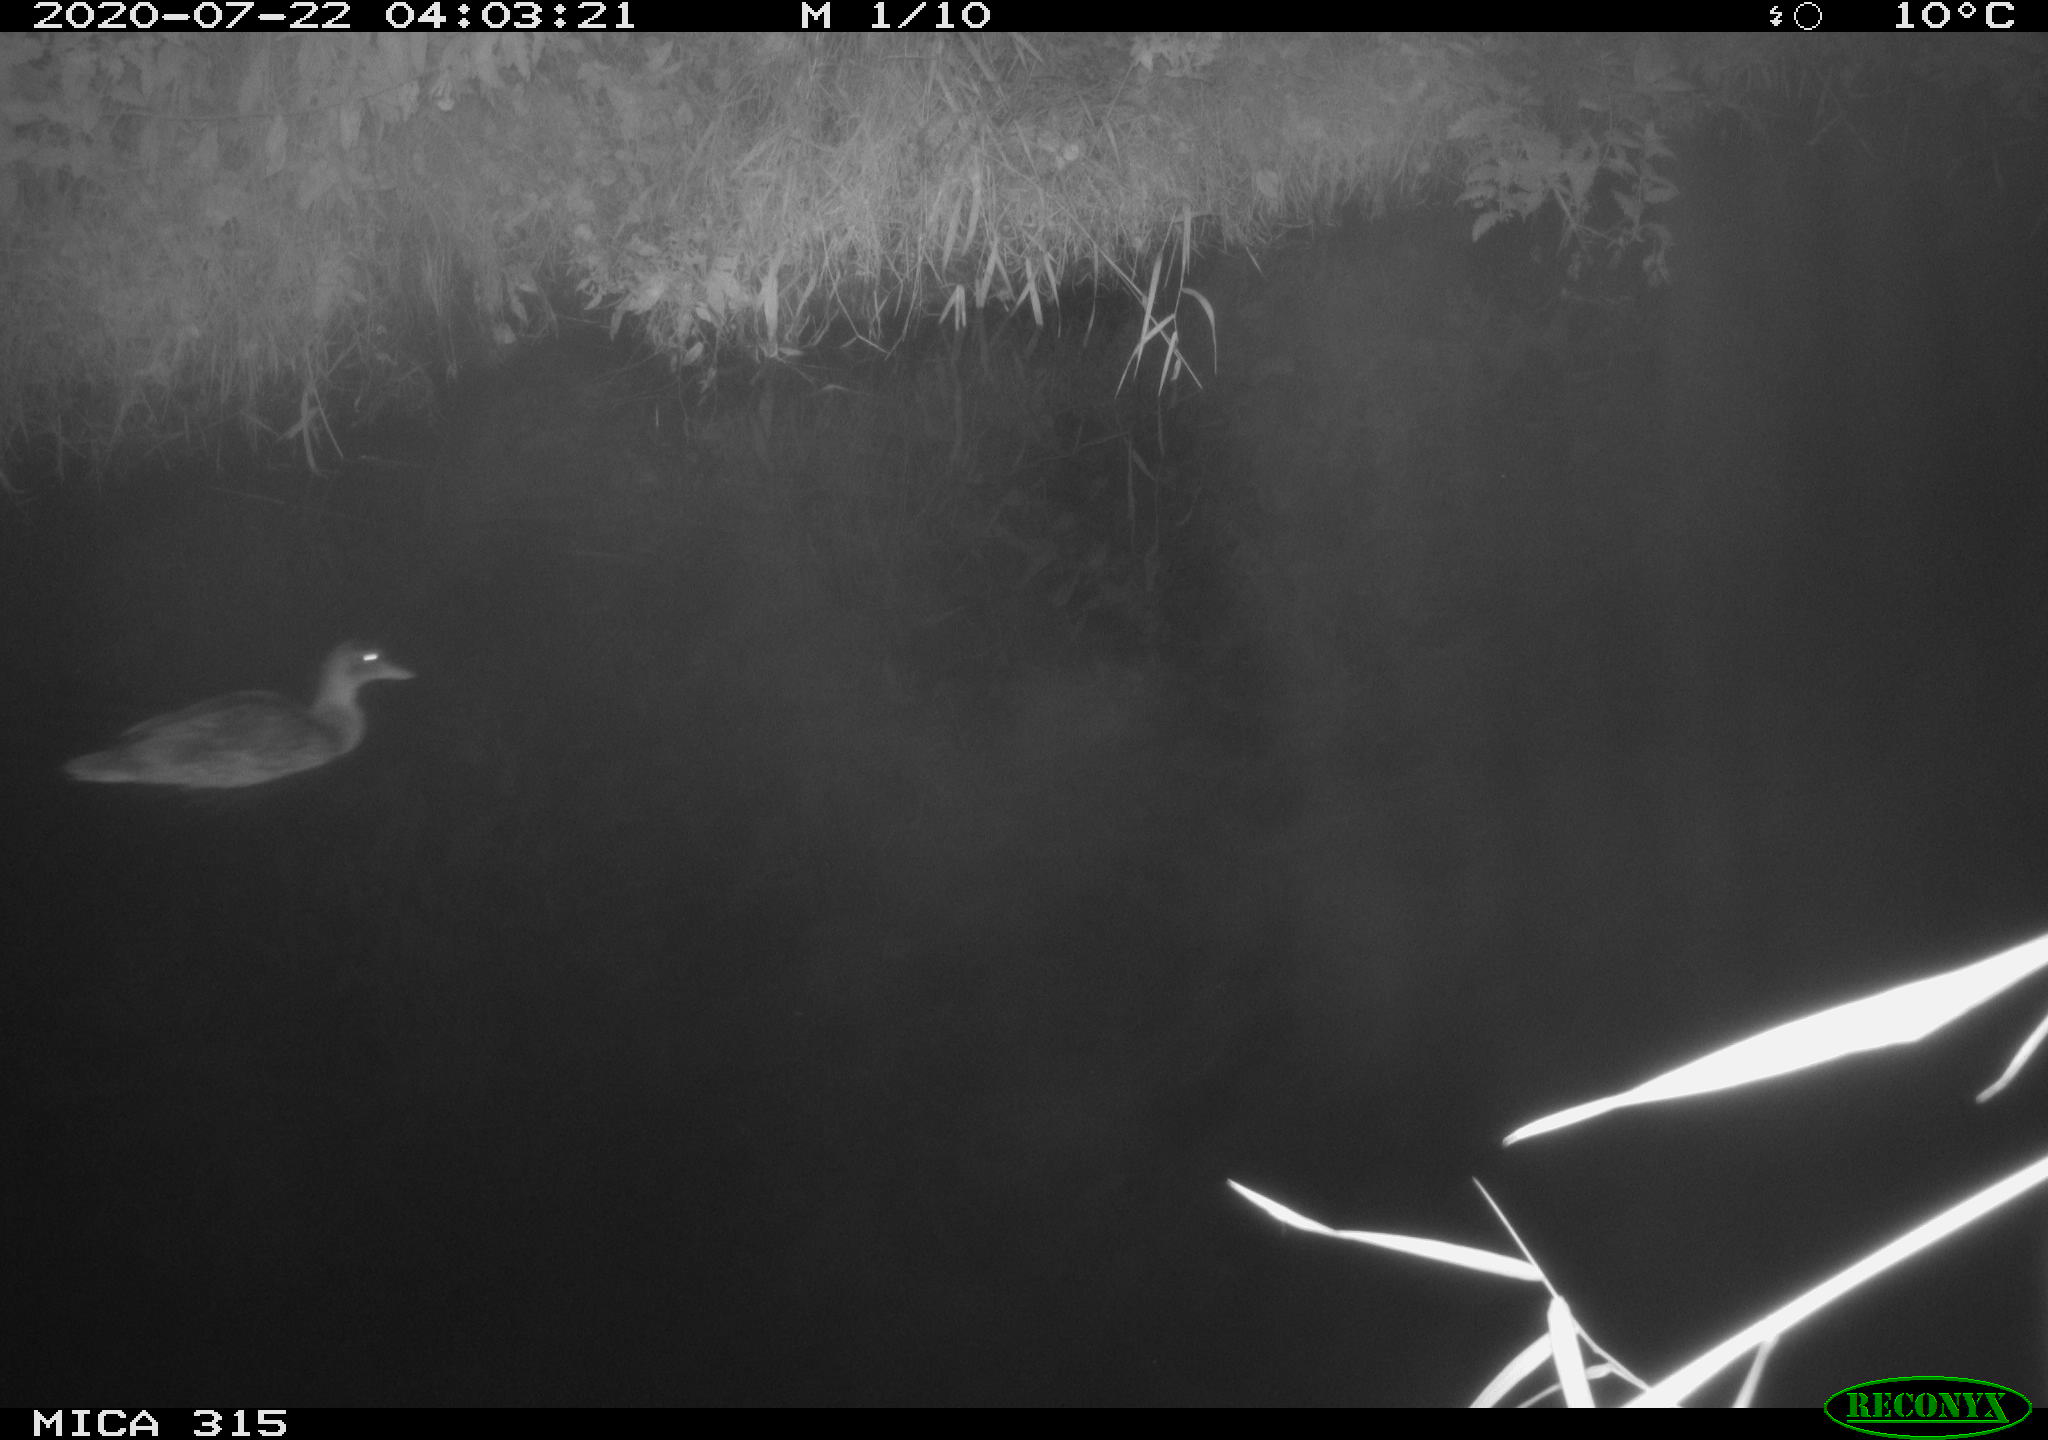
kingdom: Animalia
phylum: Chordata
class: Aves
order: Anseriformes
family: Anatidae
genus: Anas
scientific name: Anas platyrhynchos
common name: Mallard
